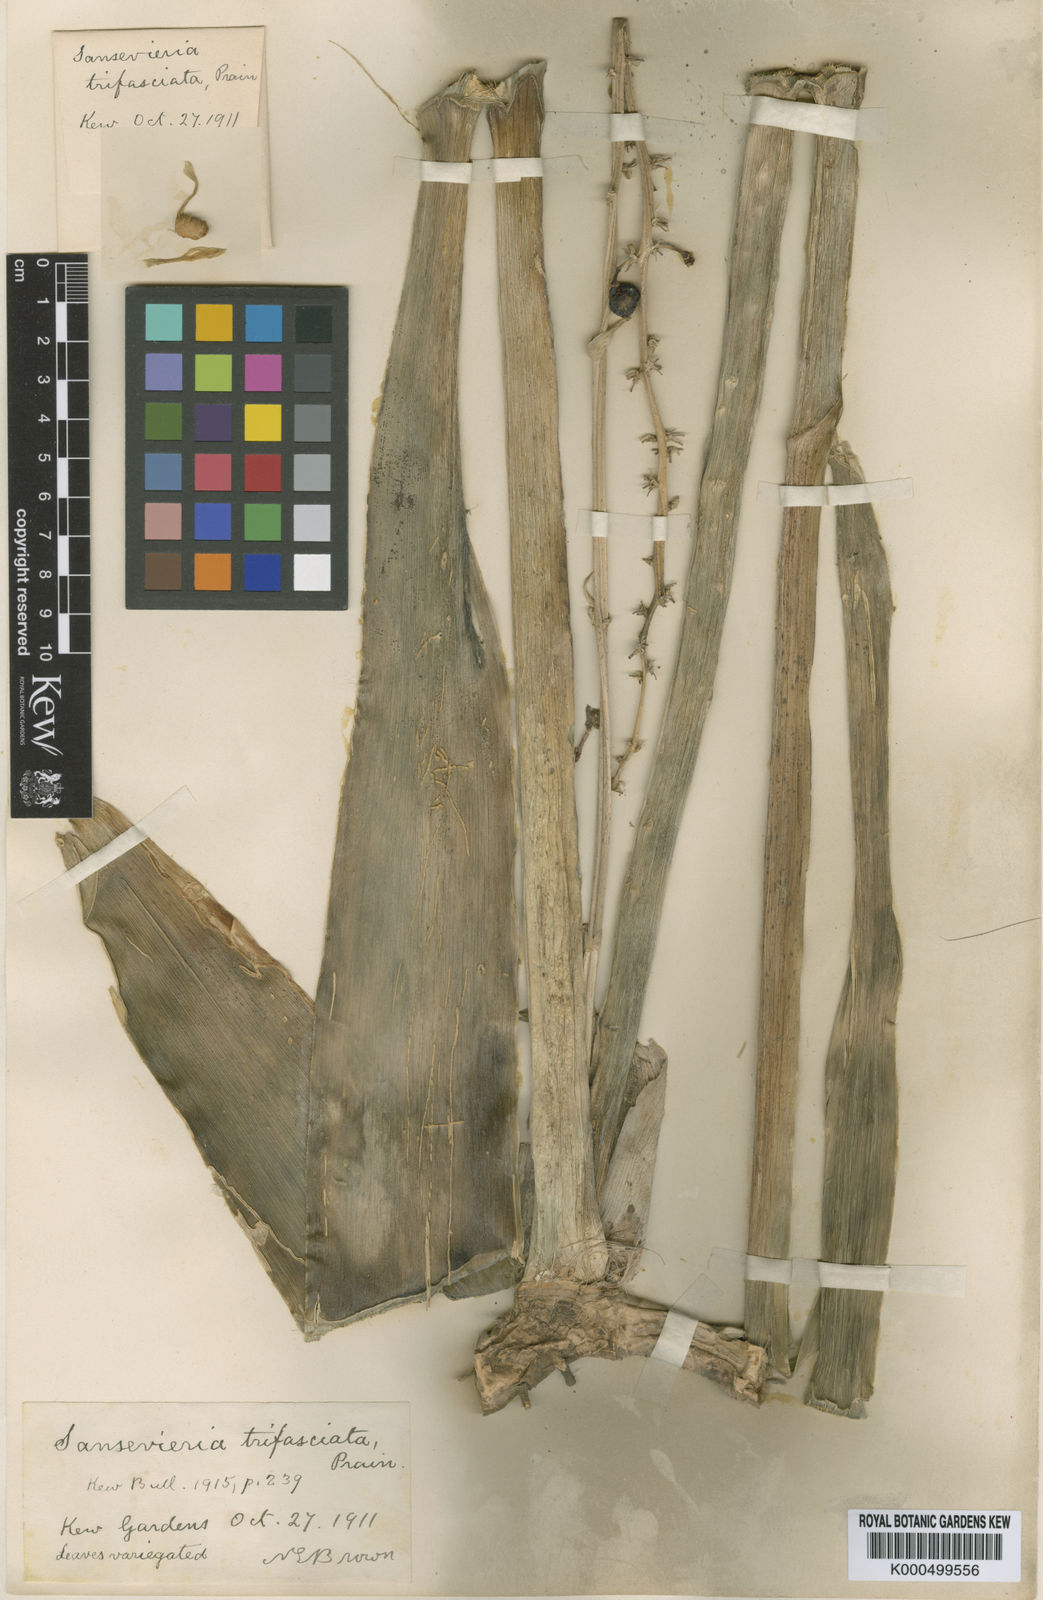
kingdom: Plantae
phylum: Tracheophyta
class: Liliopsida
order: Asparagales
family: Asparagaceae
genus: Dracaena
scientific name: Dracaena trifasciata
